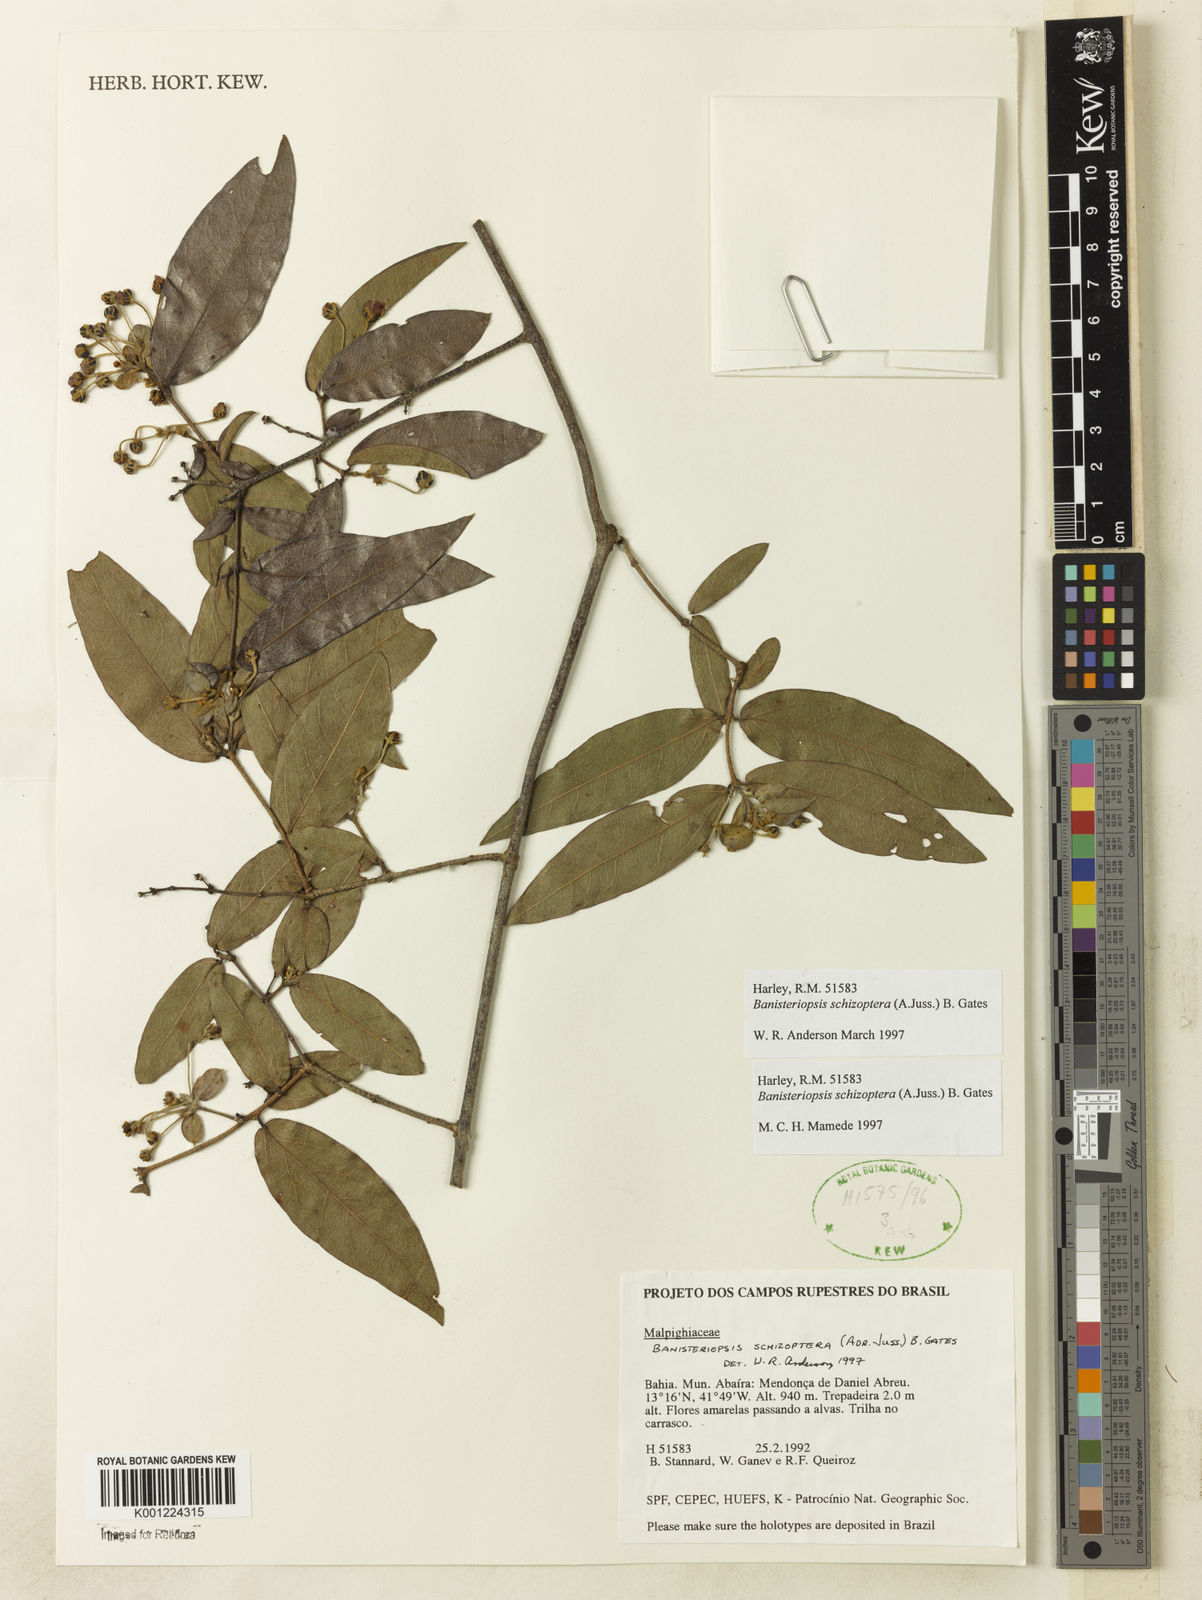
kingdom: Plantae
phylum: Tracheophyta
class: Magnoliopsida
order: Malpighiales
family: Malpighiaceae
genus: Banisteriopsis
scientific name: Banisteriopsis schizoptera
